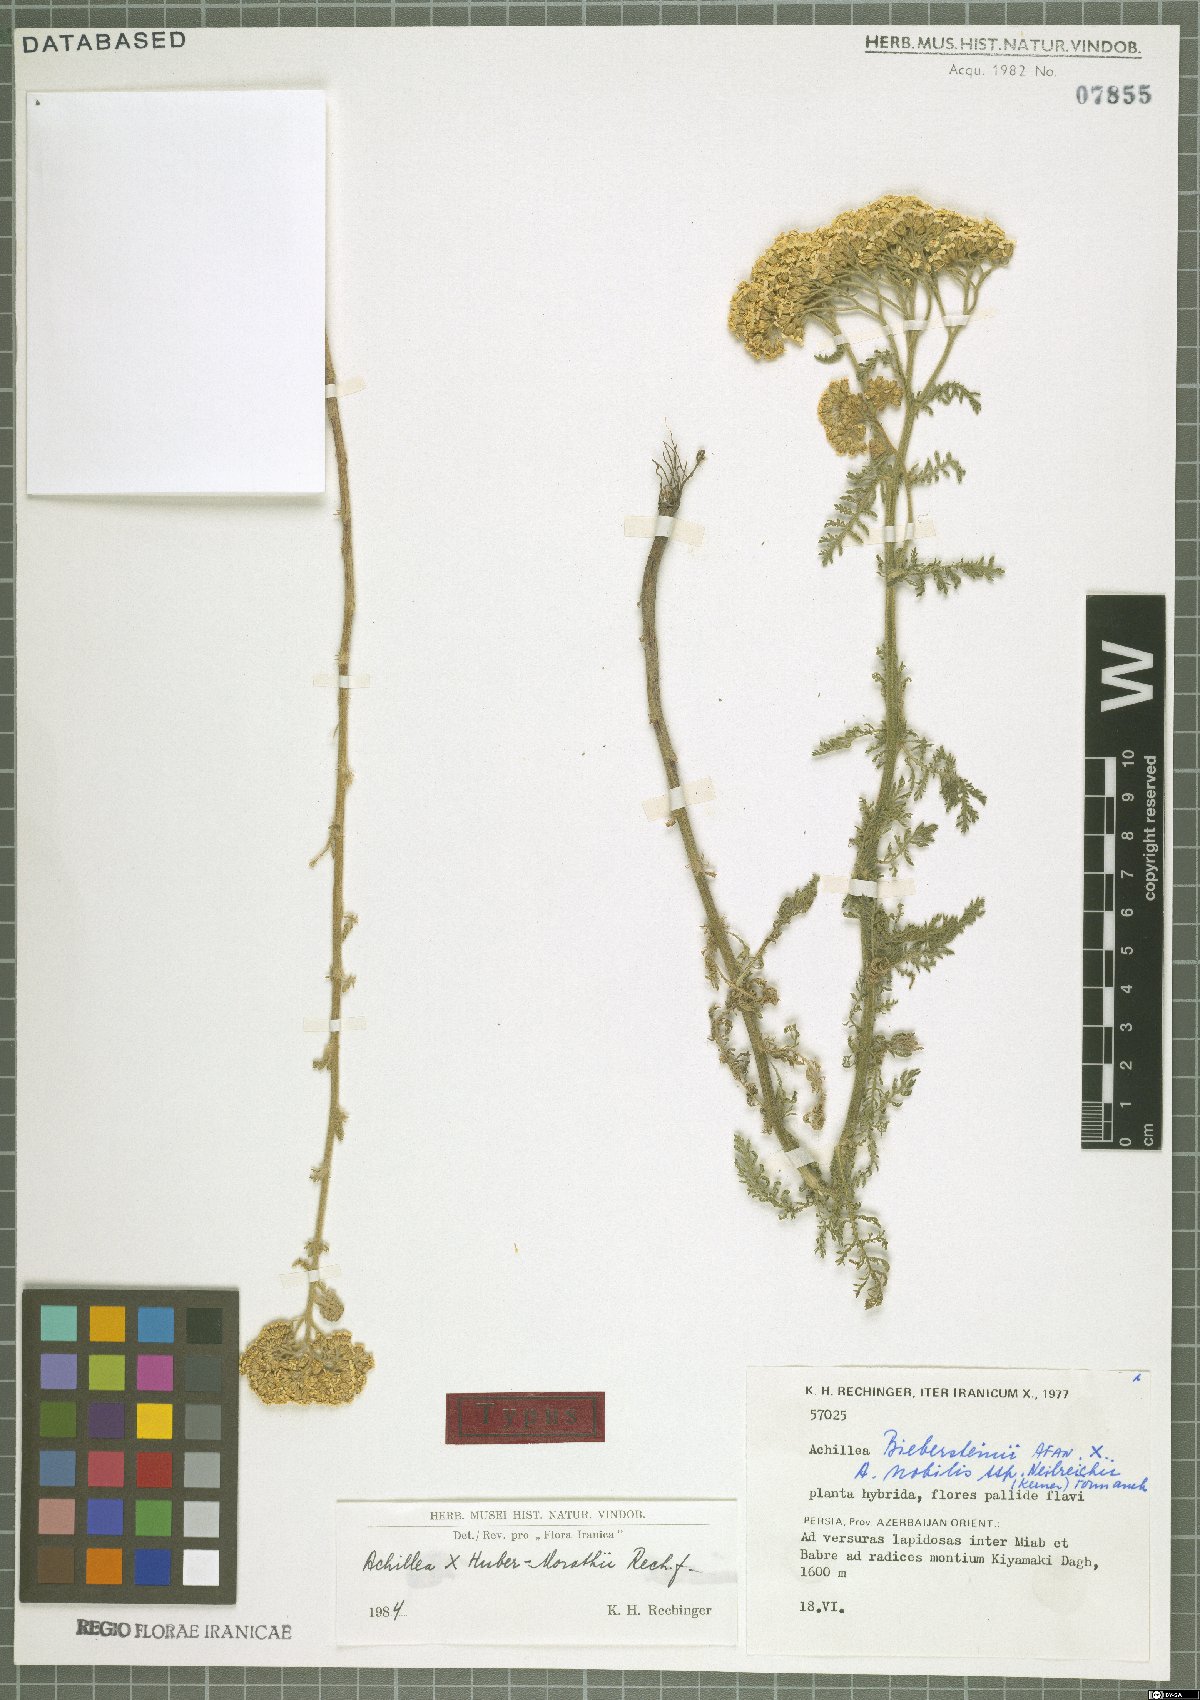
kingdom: Plantae
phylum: Tracheophyta
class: Magnoliopsida
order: Asterales
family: Asteraceae
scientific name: Asteraceae
